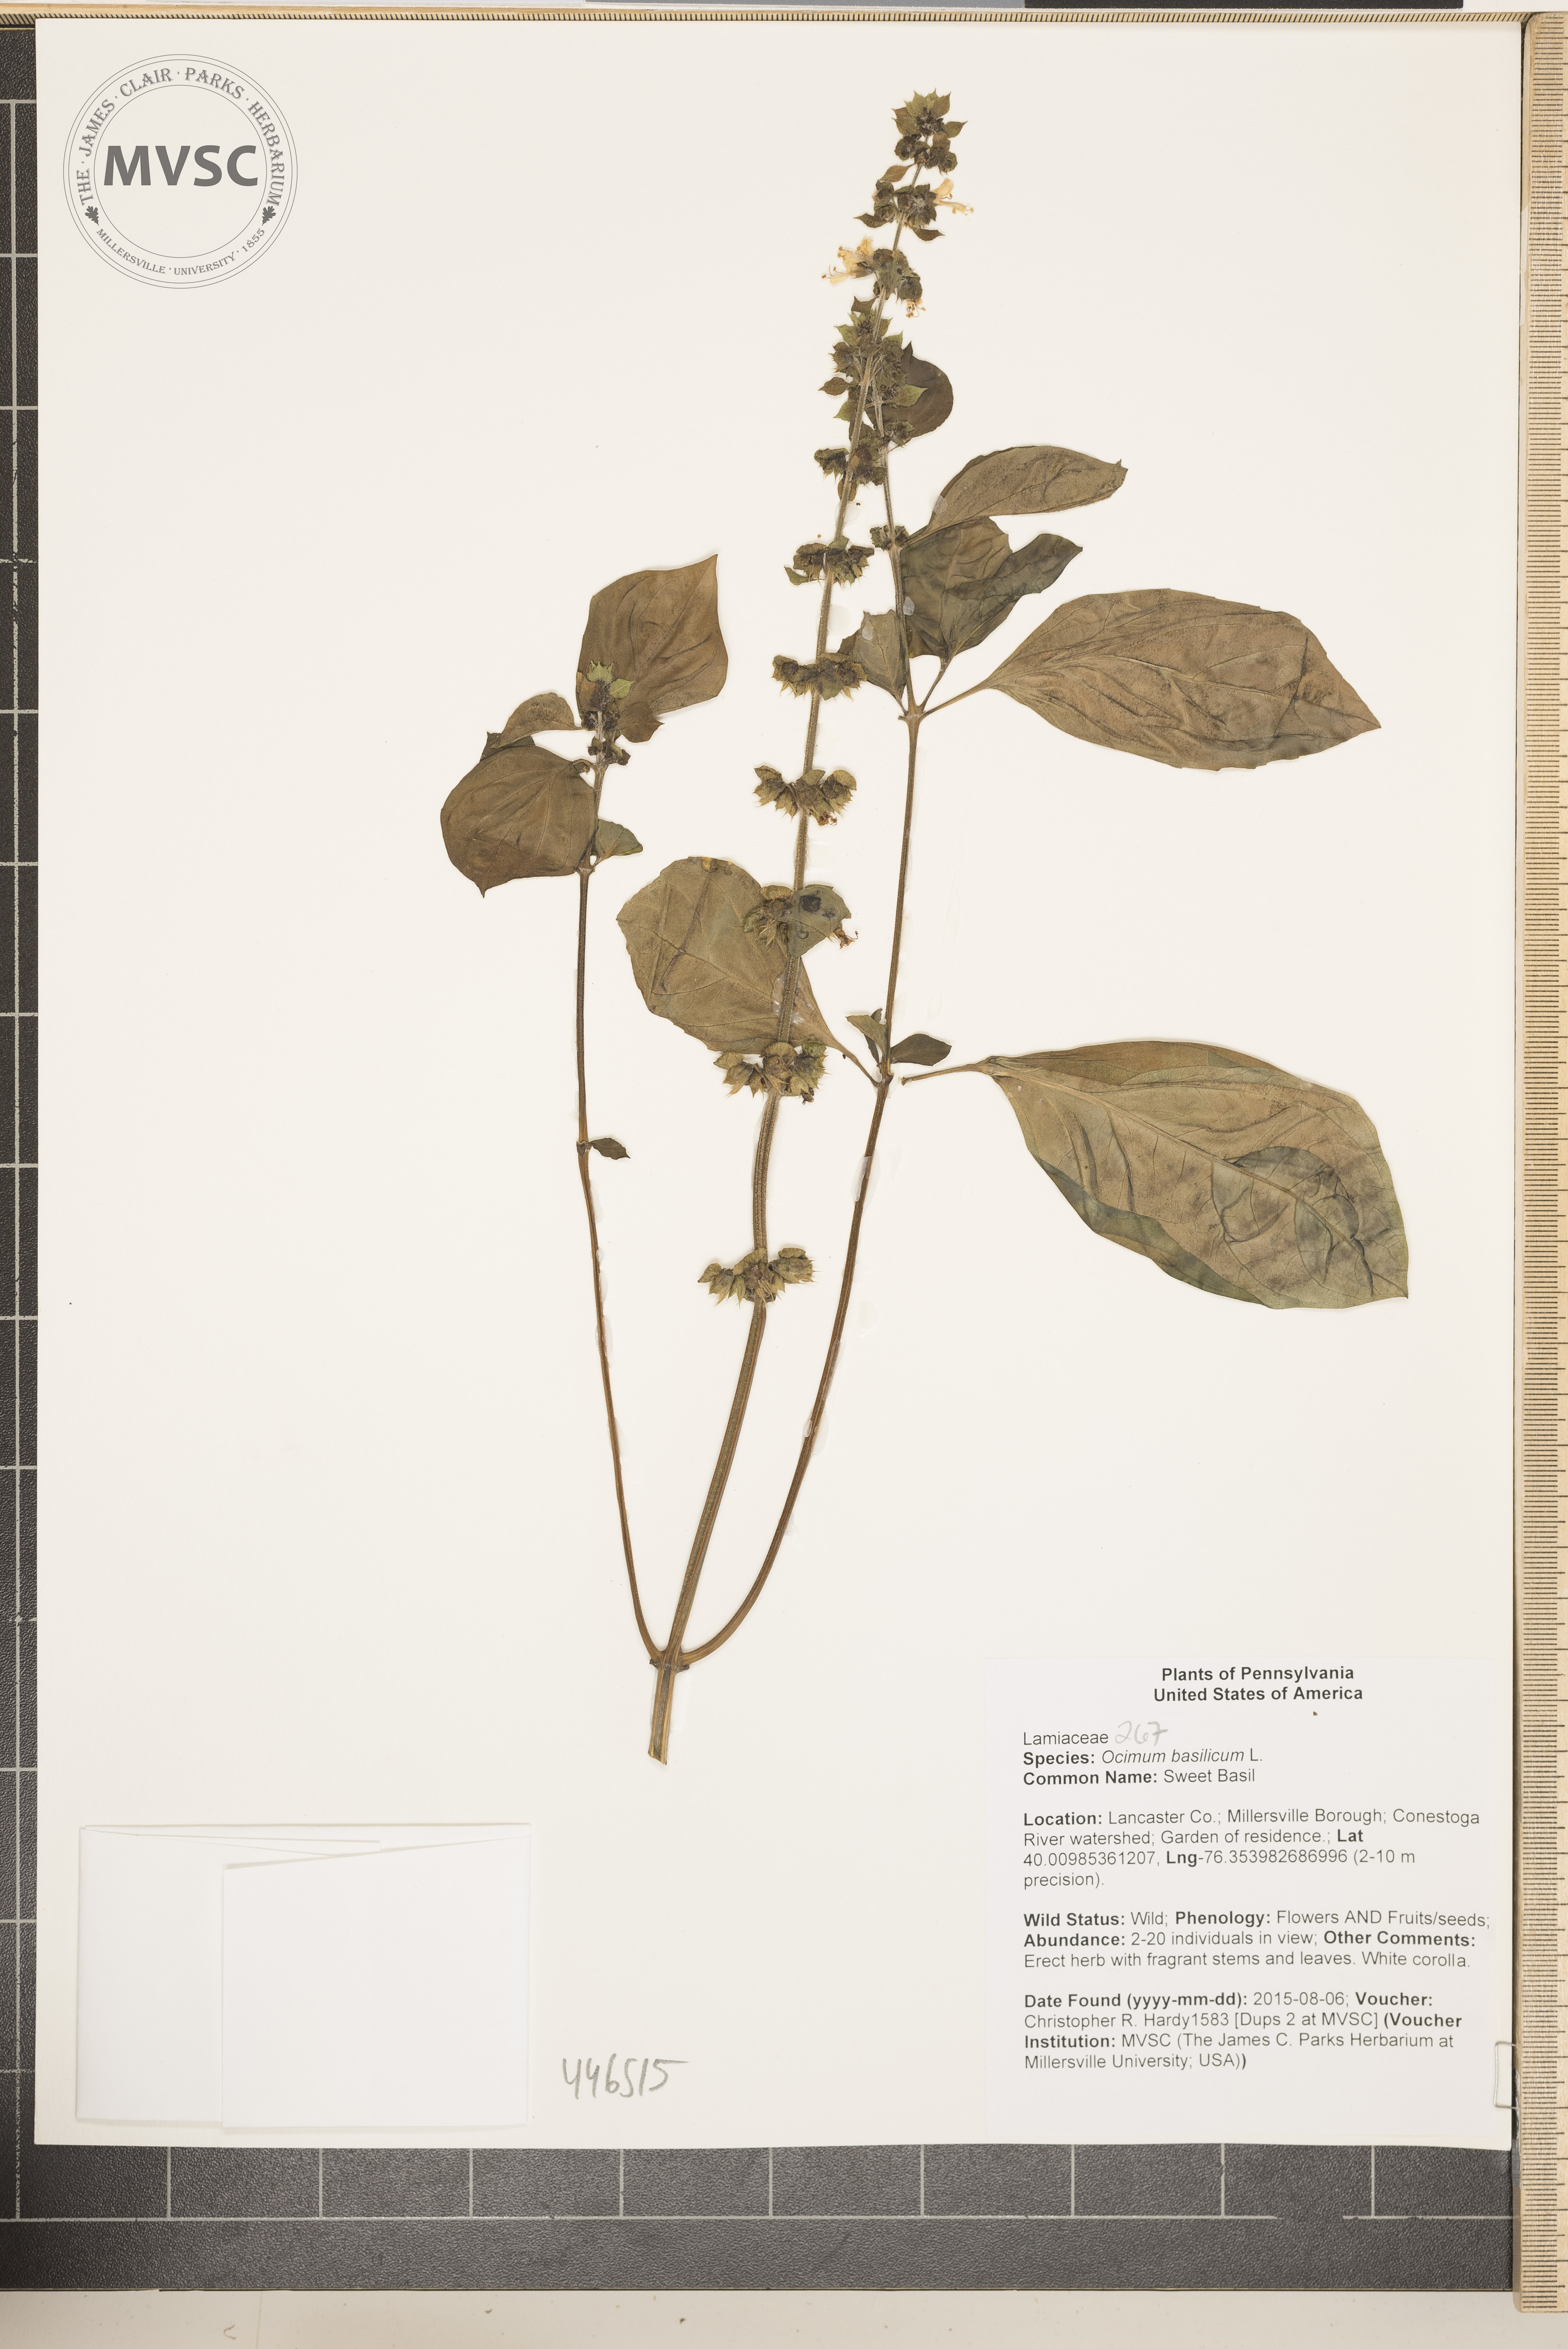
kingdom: Plantae
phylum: Tracheophyta
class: Magnoliopsida
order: Lamiales
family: Lamiaceae
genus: Ocimum
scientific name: Ocimum basilicum
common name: Sweet Basil
